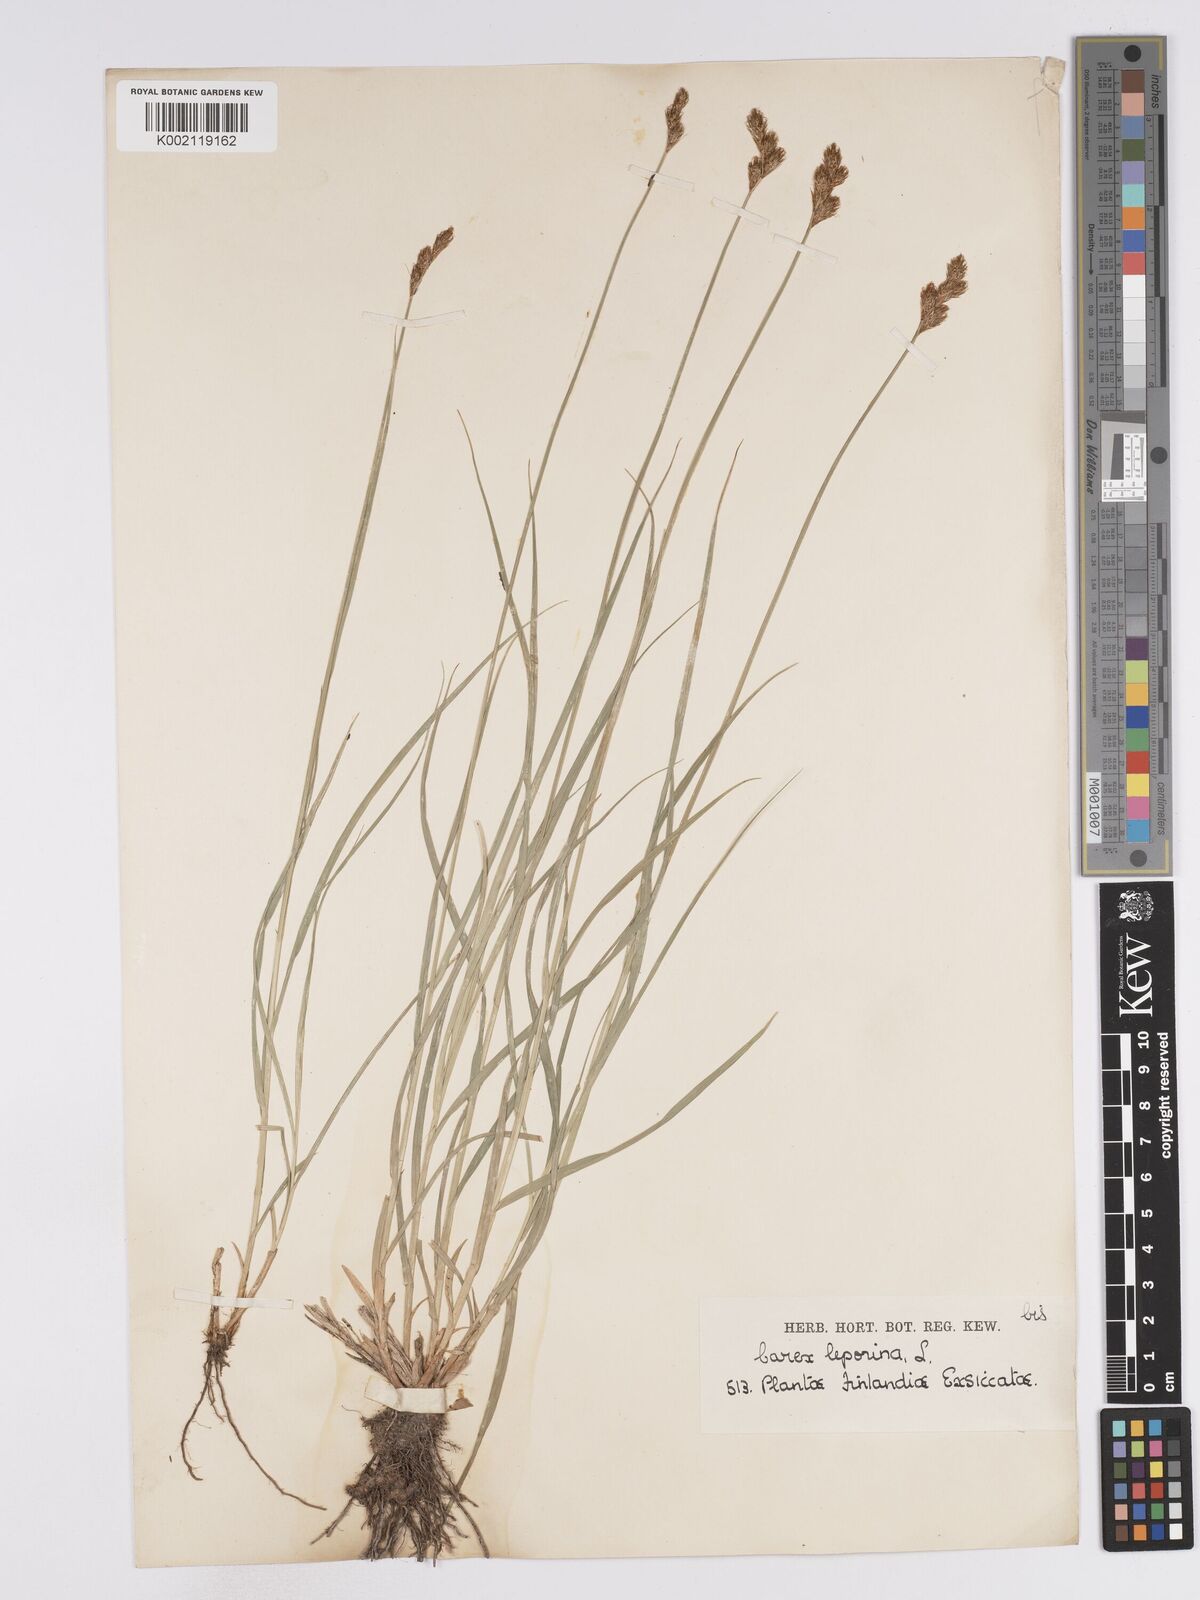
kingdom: Plantae
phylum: Tracheophyta
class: Liliopsida
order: Poales
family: Cyperaceae
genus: Carex
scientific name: Carex leporina
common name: Oval sedge
